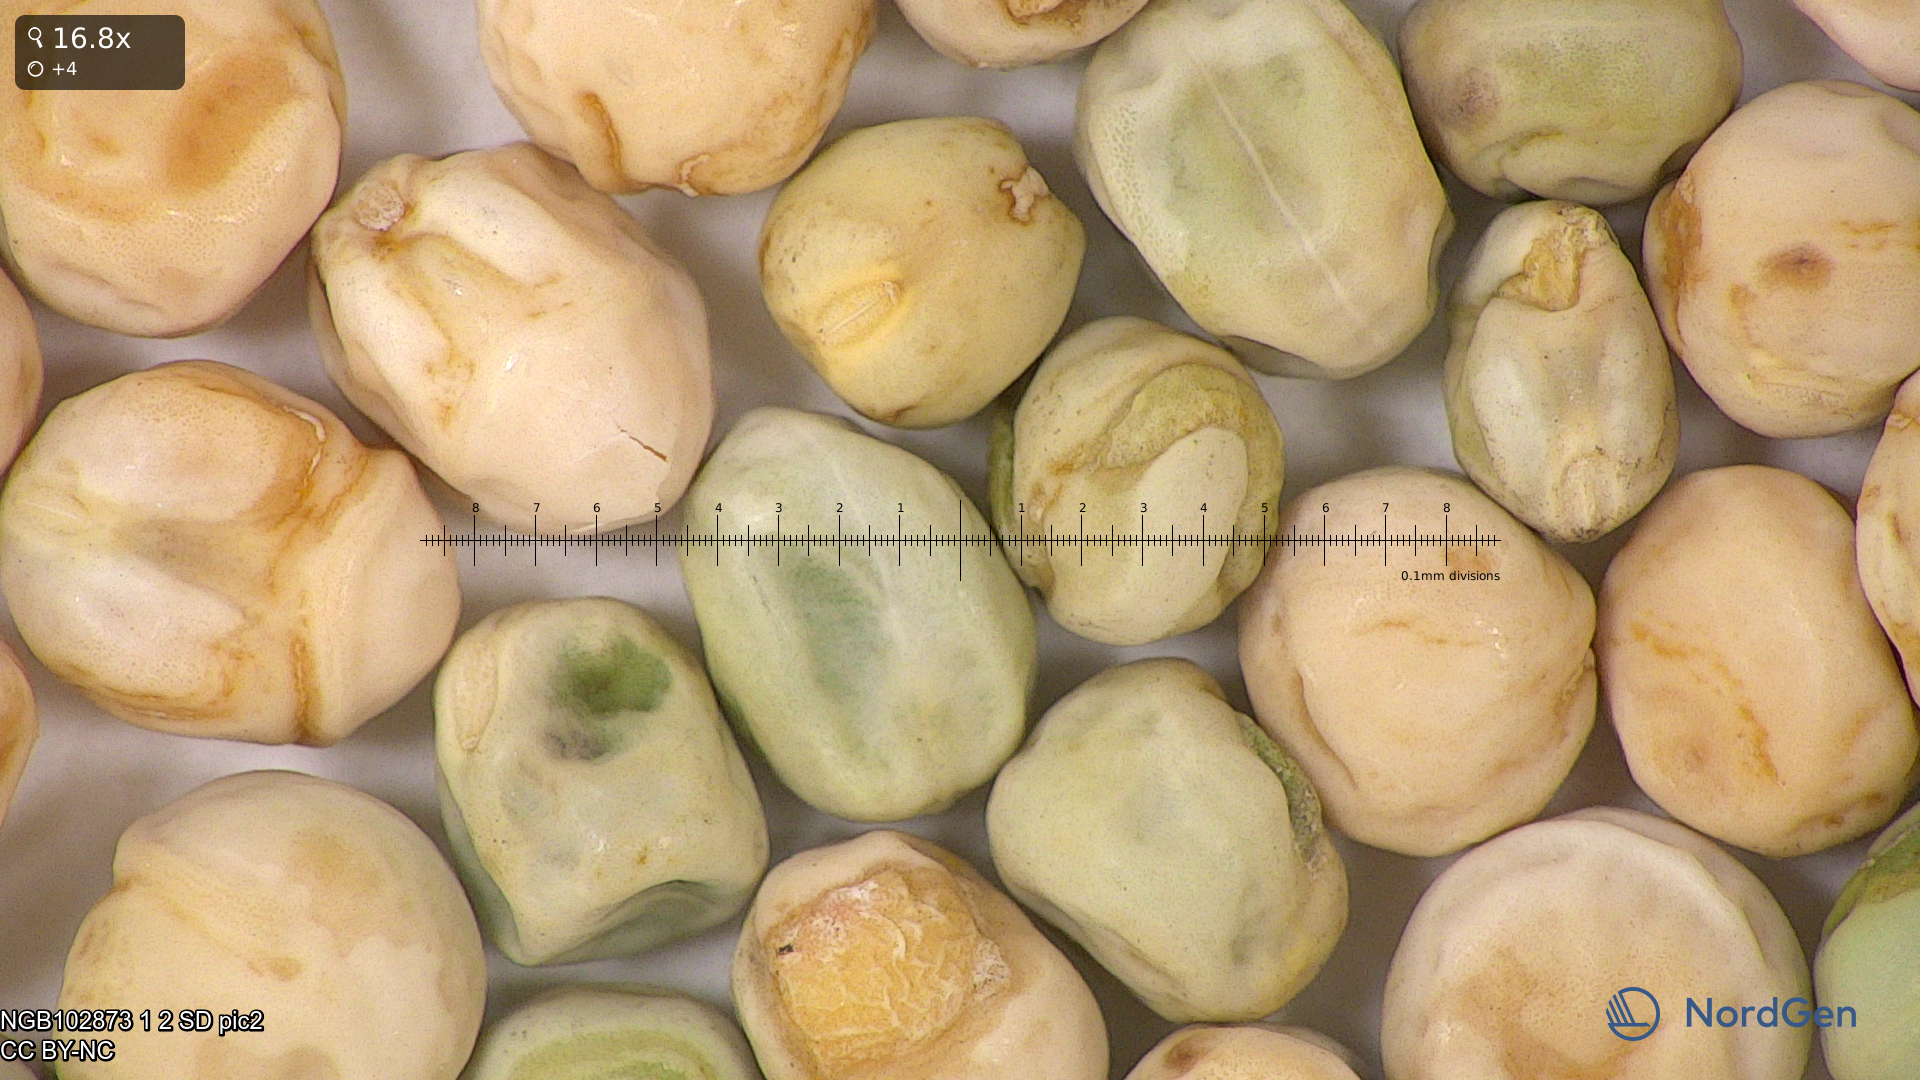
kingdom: Plantae
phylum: Tracheophyta
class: Magnoliopsida
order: Fabales
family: Fabaceae
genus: Lathyrus
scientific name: Lathyrus oleraceus
